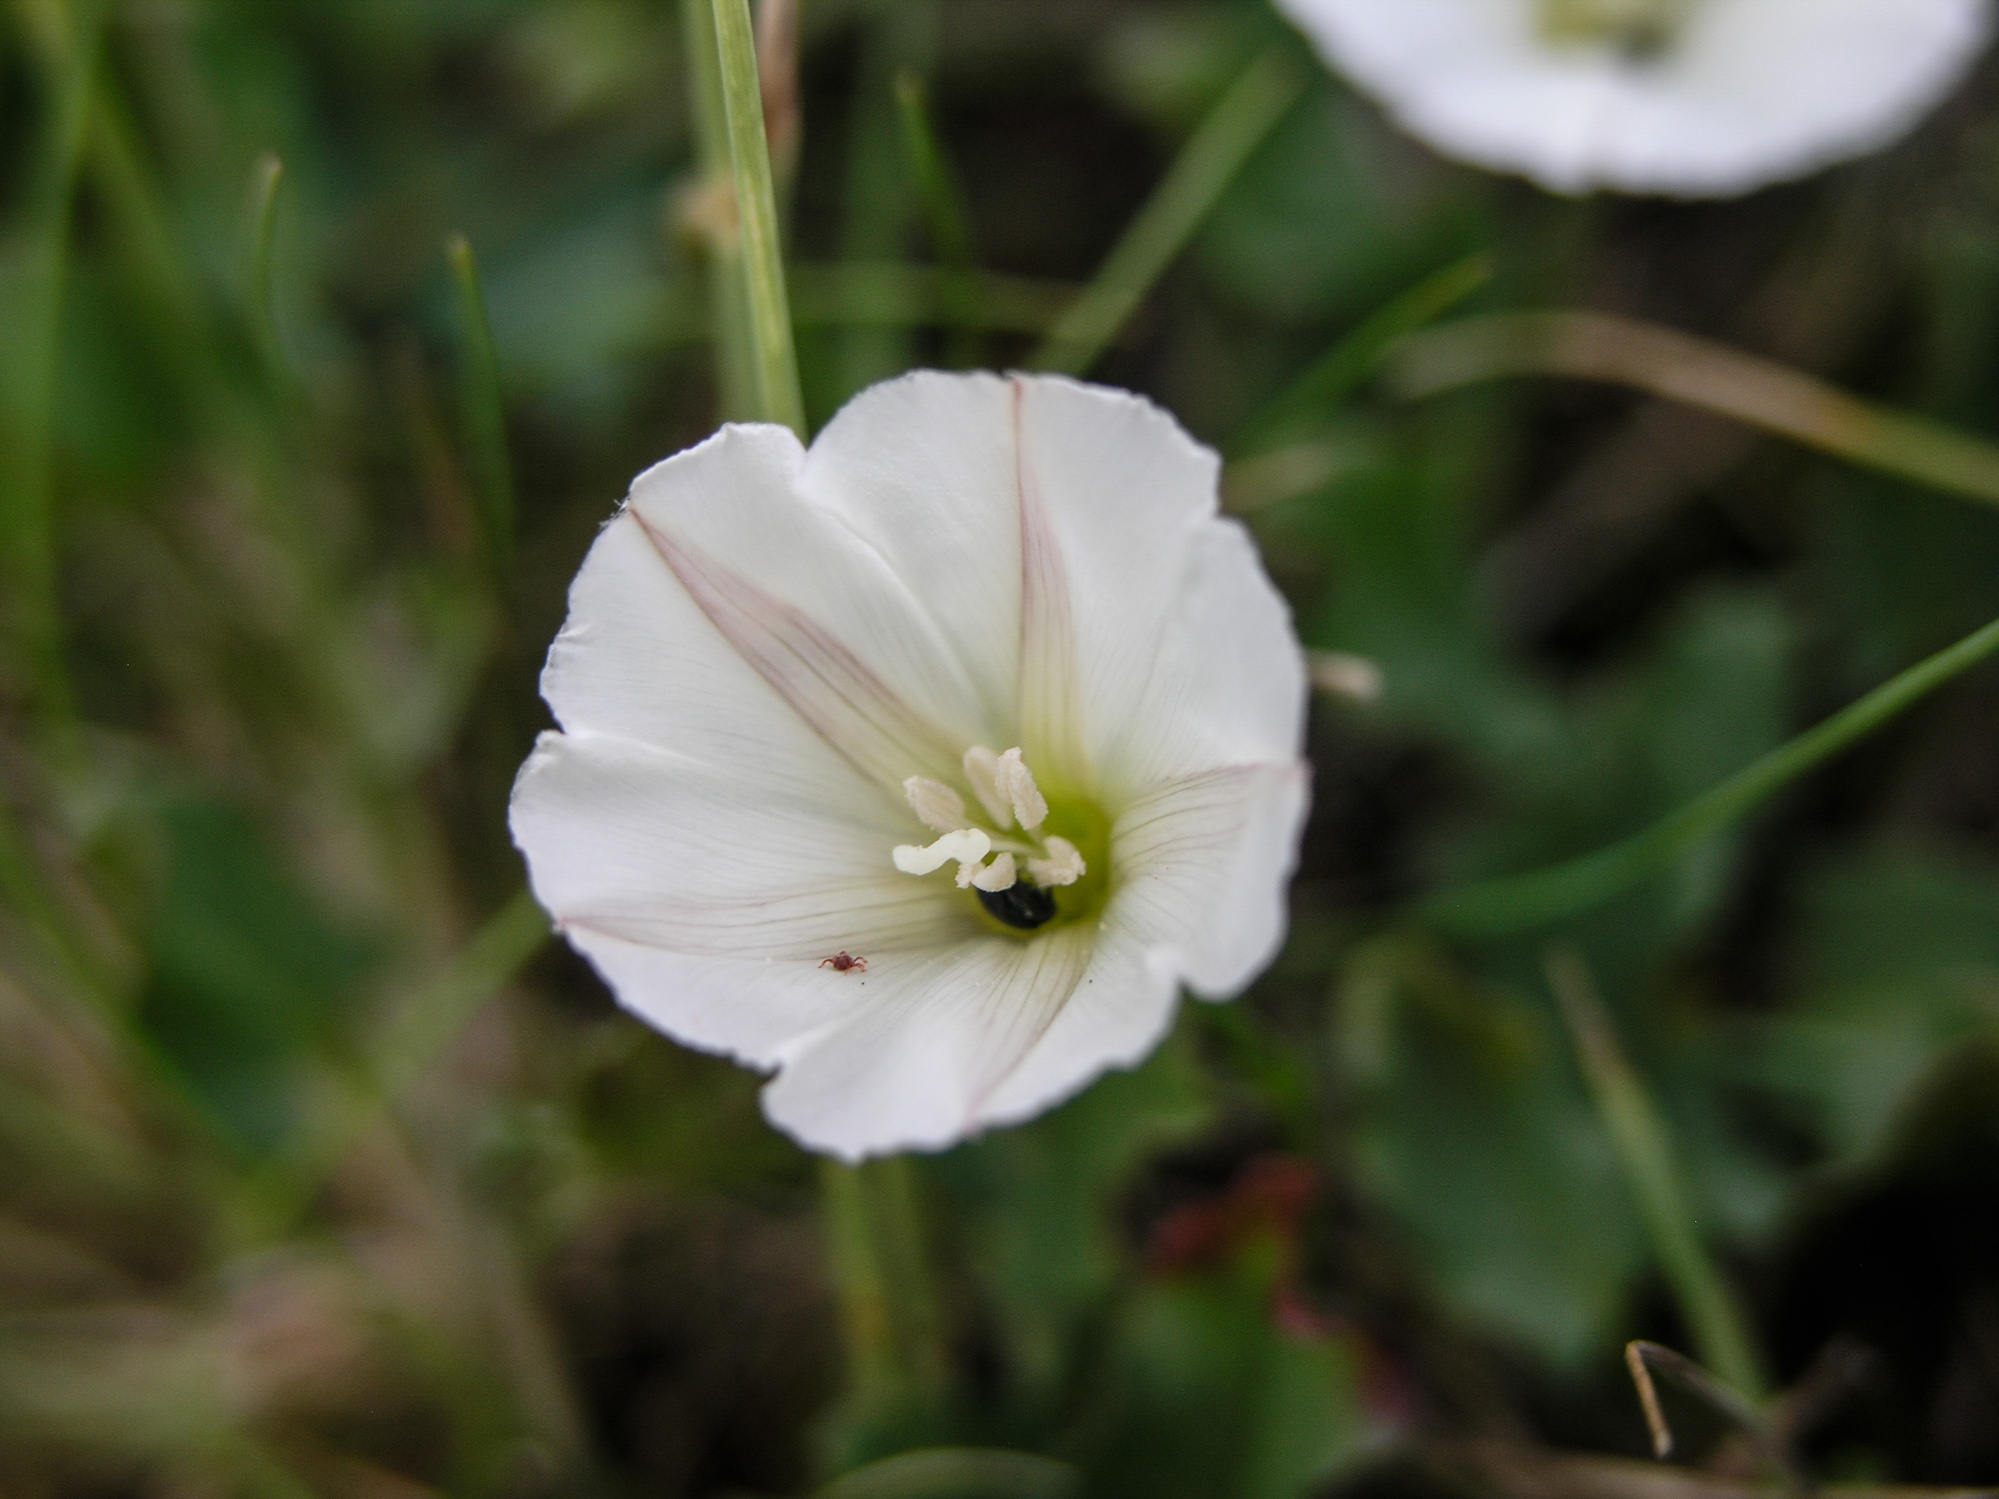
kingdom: Plantae
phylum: Tracheophyta
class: Magnoliopsida
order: Solanales
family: Convolvulaceae
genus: Convolvulus
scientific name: Convolvulus arvensis
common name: Field bindweed
